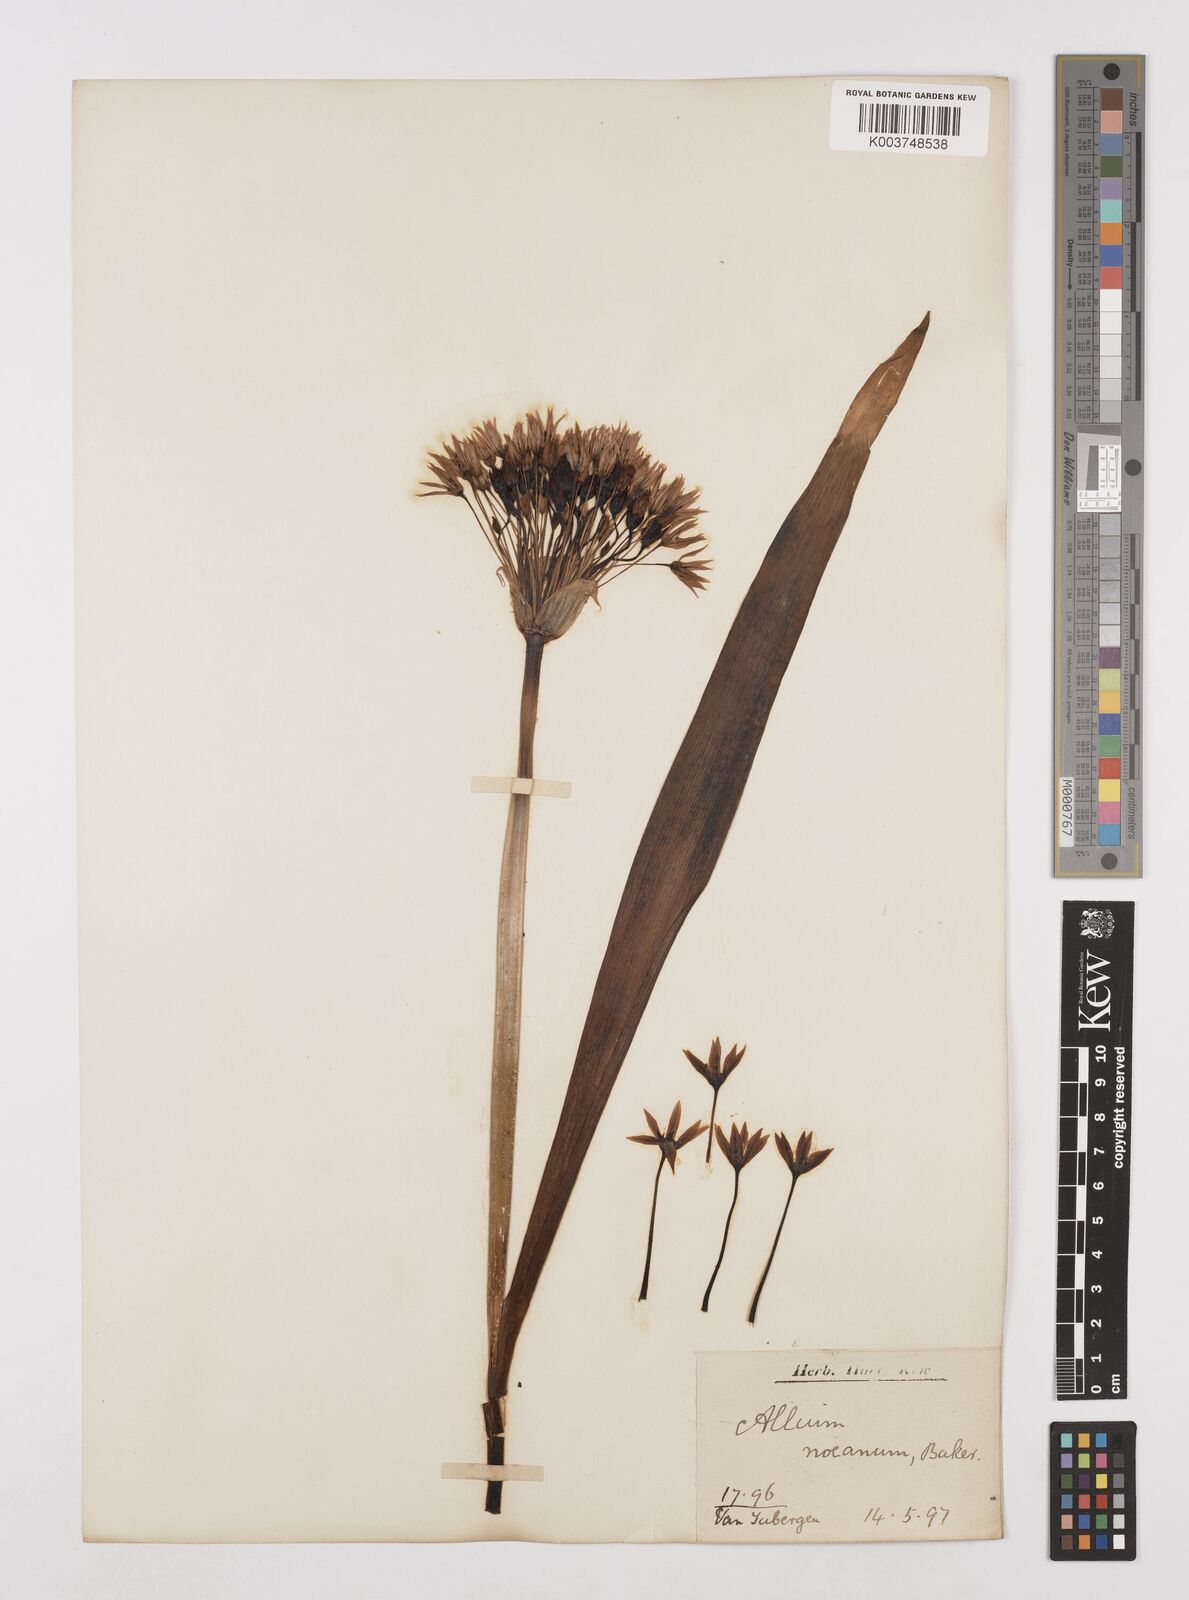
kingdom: Plantae
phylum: Tracheophyta
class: Liliopsida
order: Asparagales
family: Amaryllidaceae
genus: Allium
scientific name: Allium noeanum
